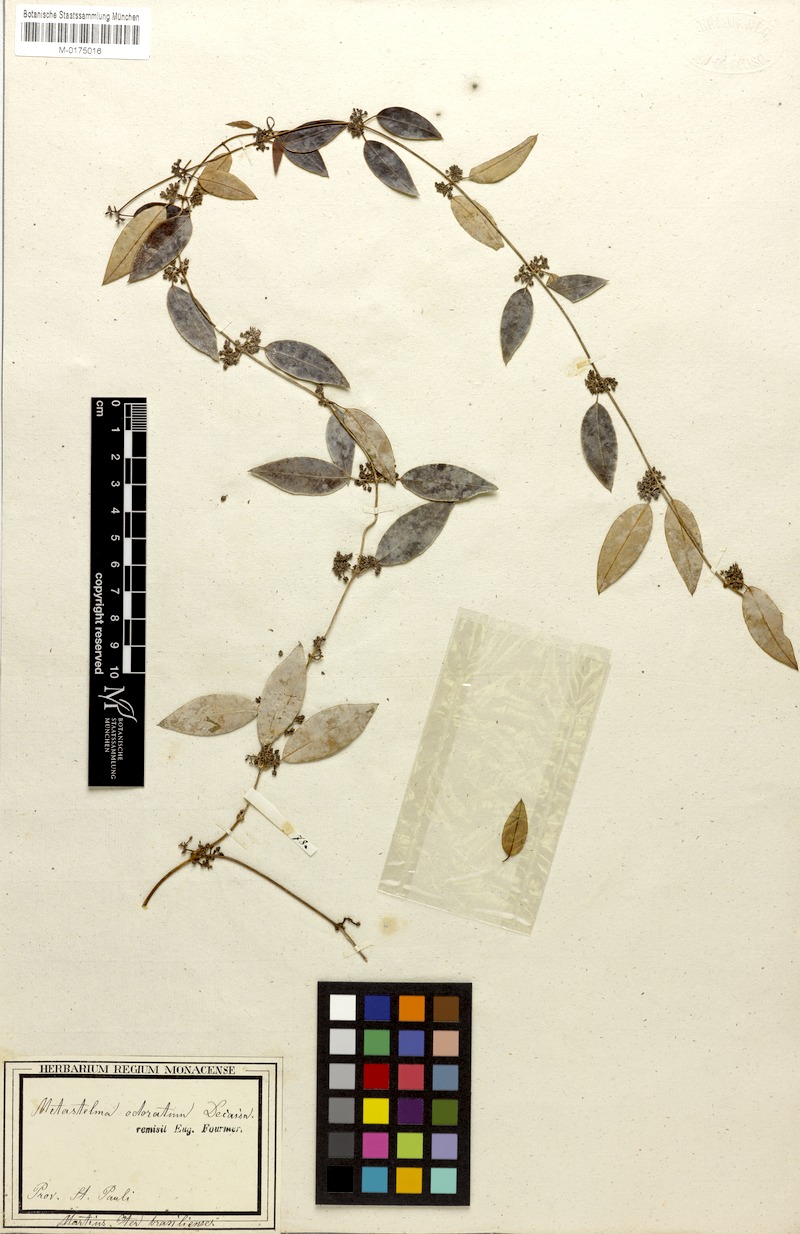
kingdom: Plantae
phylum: Tracheophyta
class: Magnoliopsida
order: Gentianales
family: Apocynaceae
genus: Peplonia
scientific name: Peplonia axillaris
